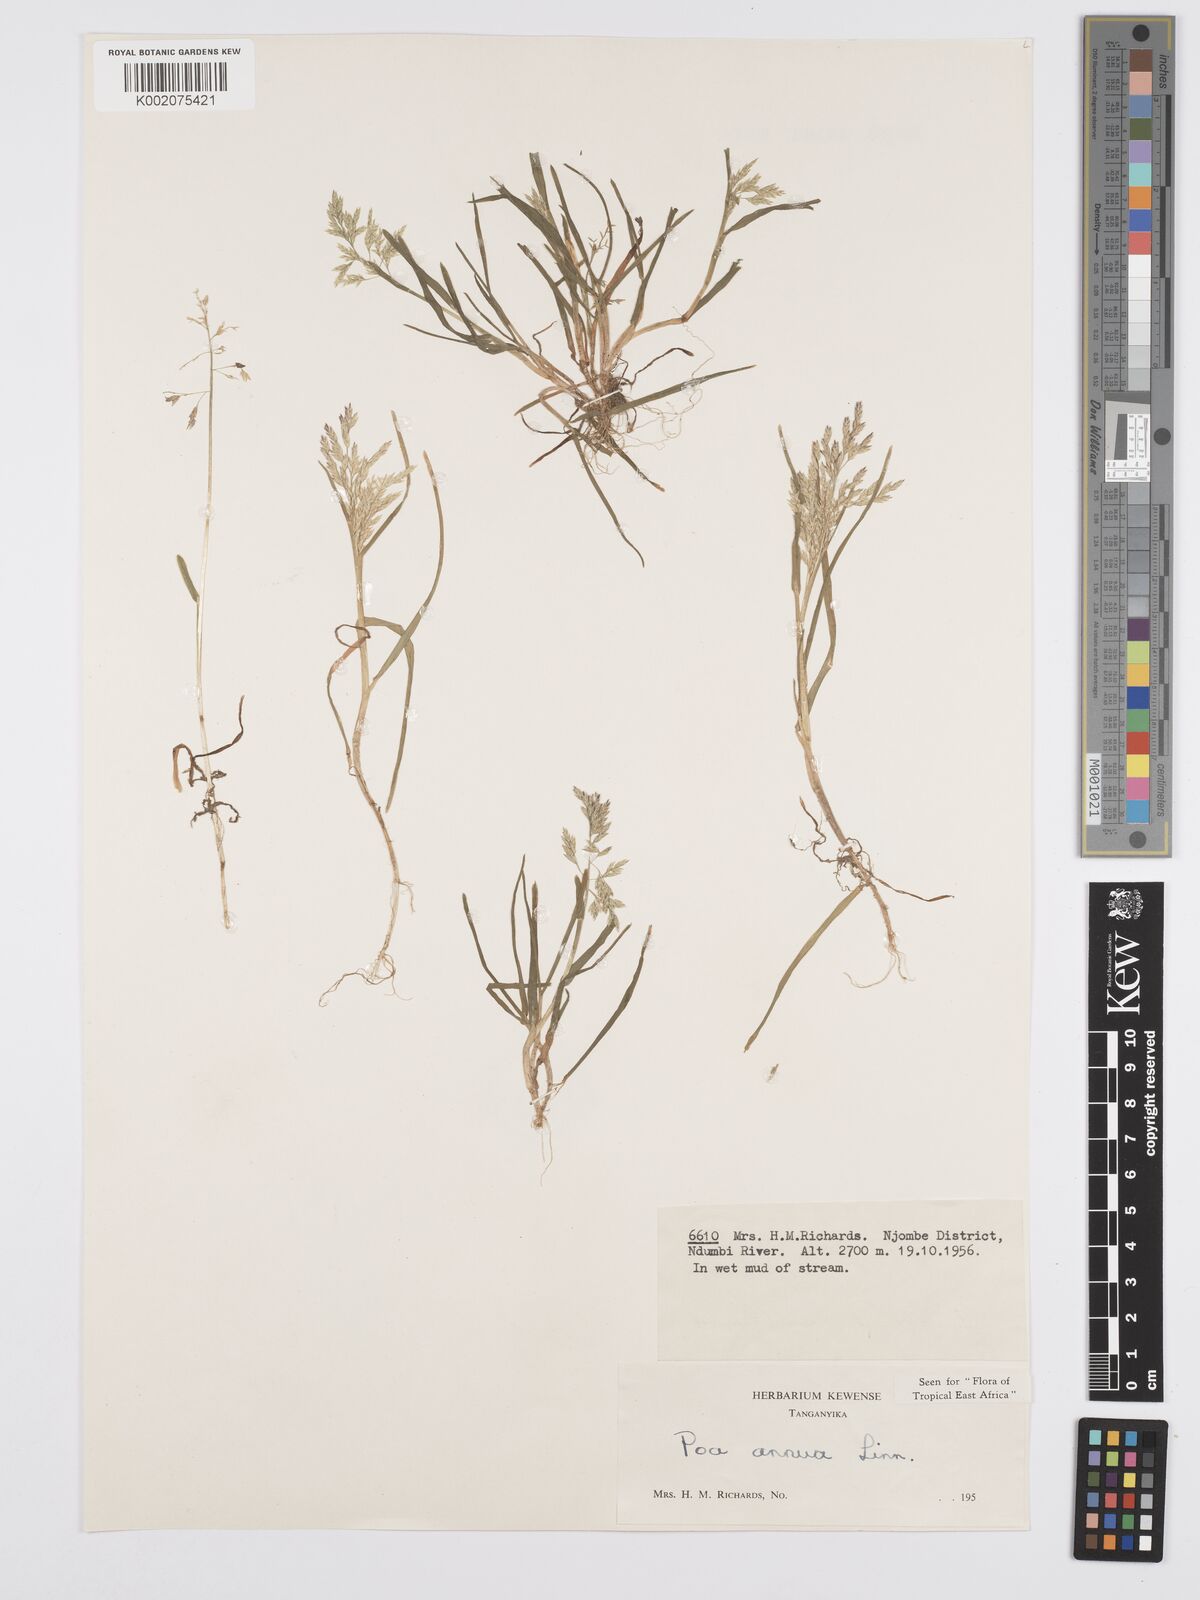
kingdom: Plantae
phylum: Tracheophyta
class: Liliopsida
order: Poales
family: Poaceae
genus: Poa
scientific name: Poa annua
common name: Annual bluegrass
